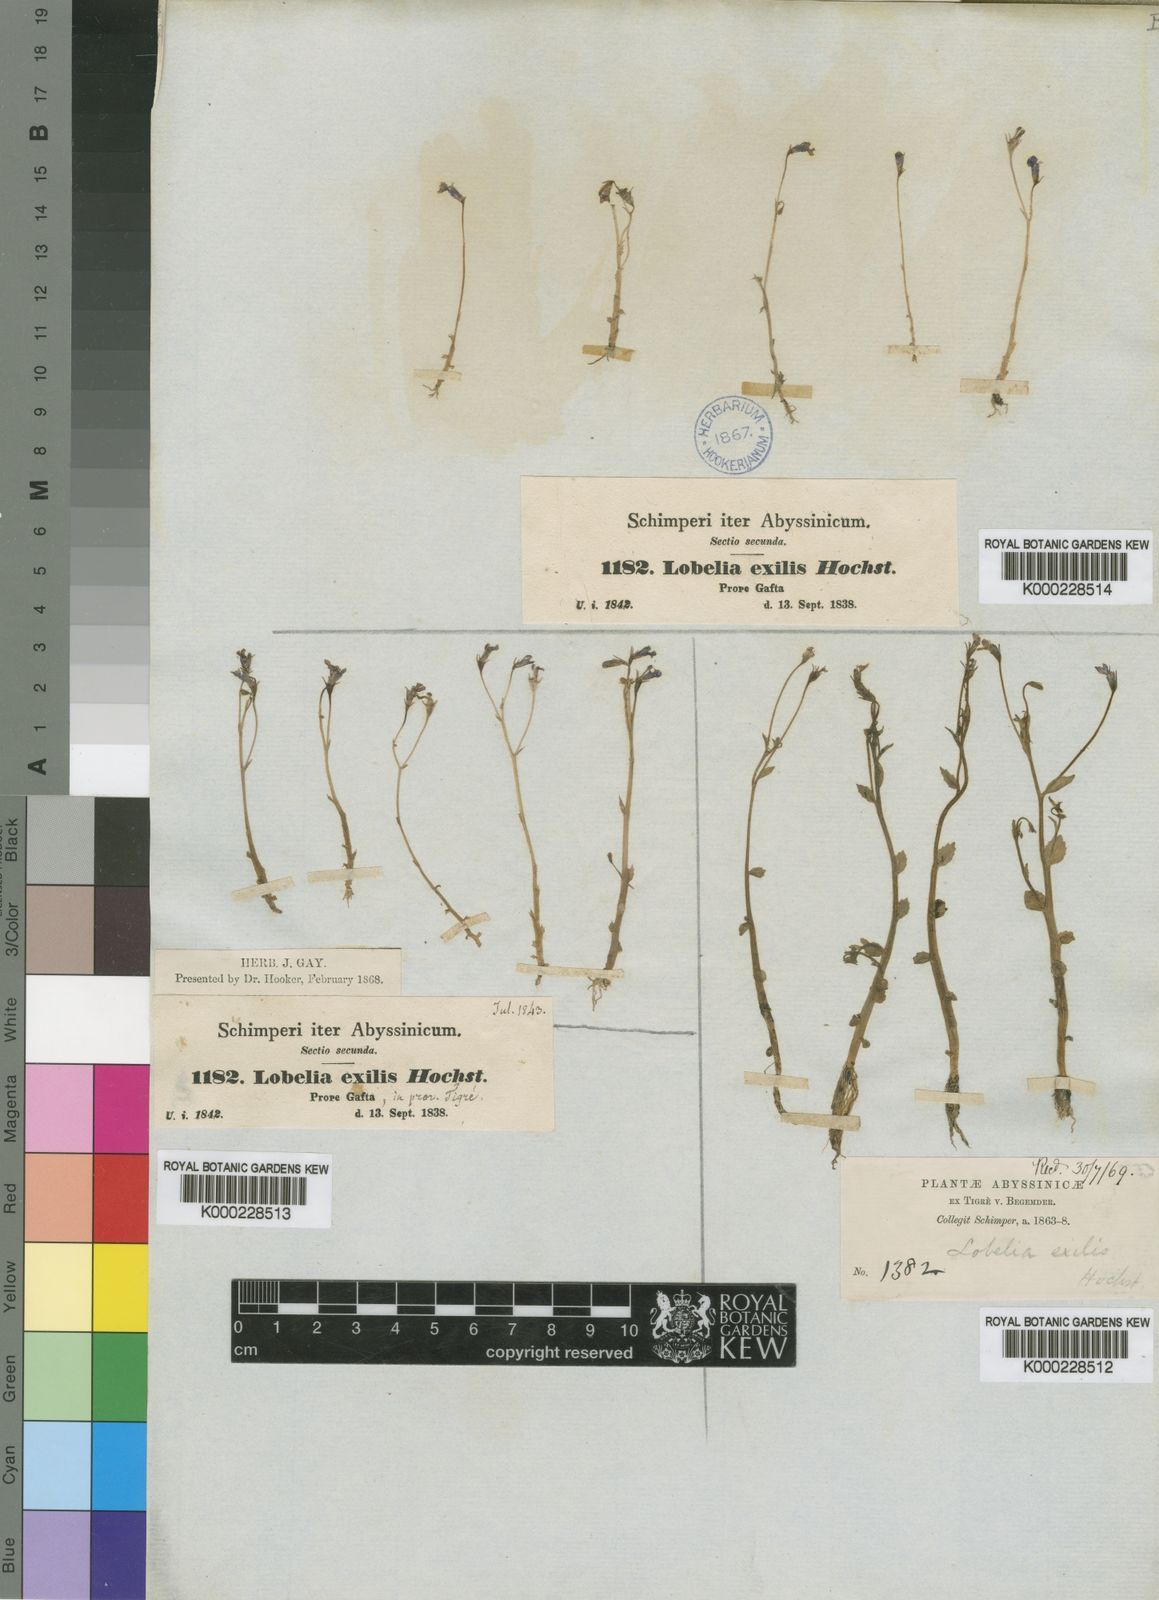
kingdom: Plantae
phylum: Tracheophyta
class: Magnoliopsida
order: Asterales
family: Campanulaceae
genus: Lobelia
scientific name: Lobelia
